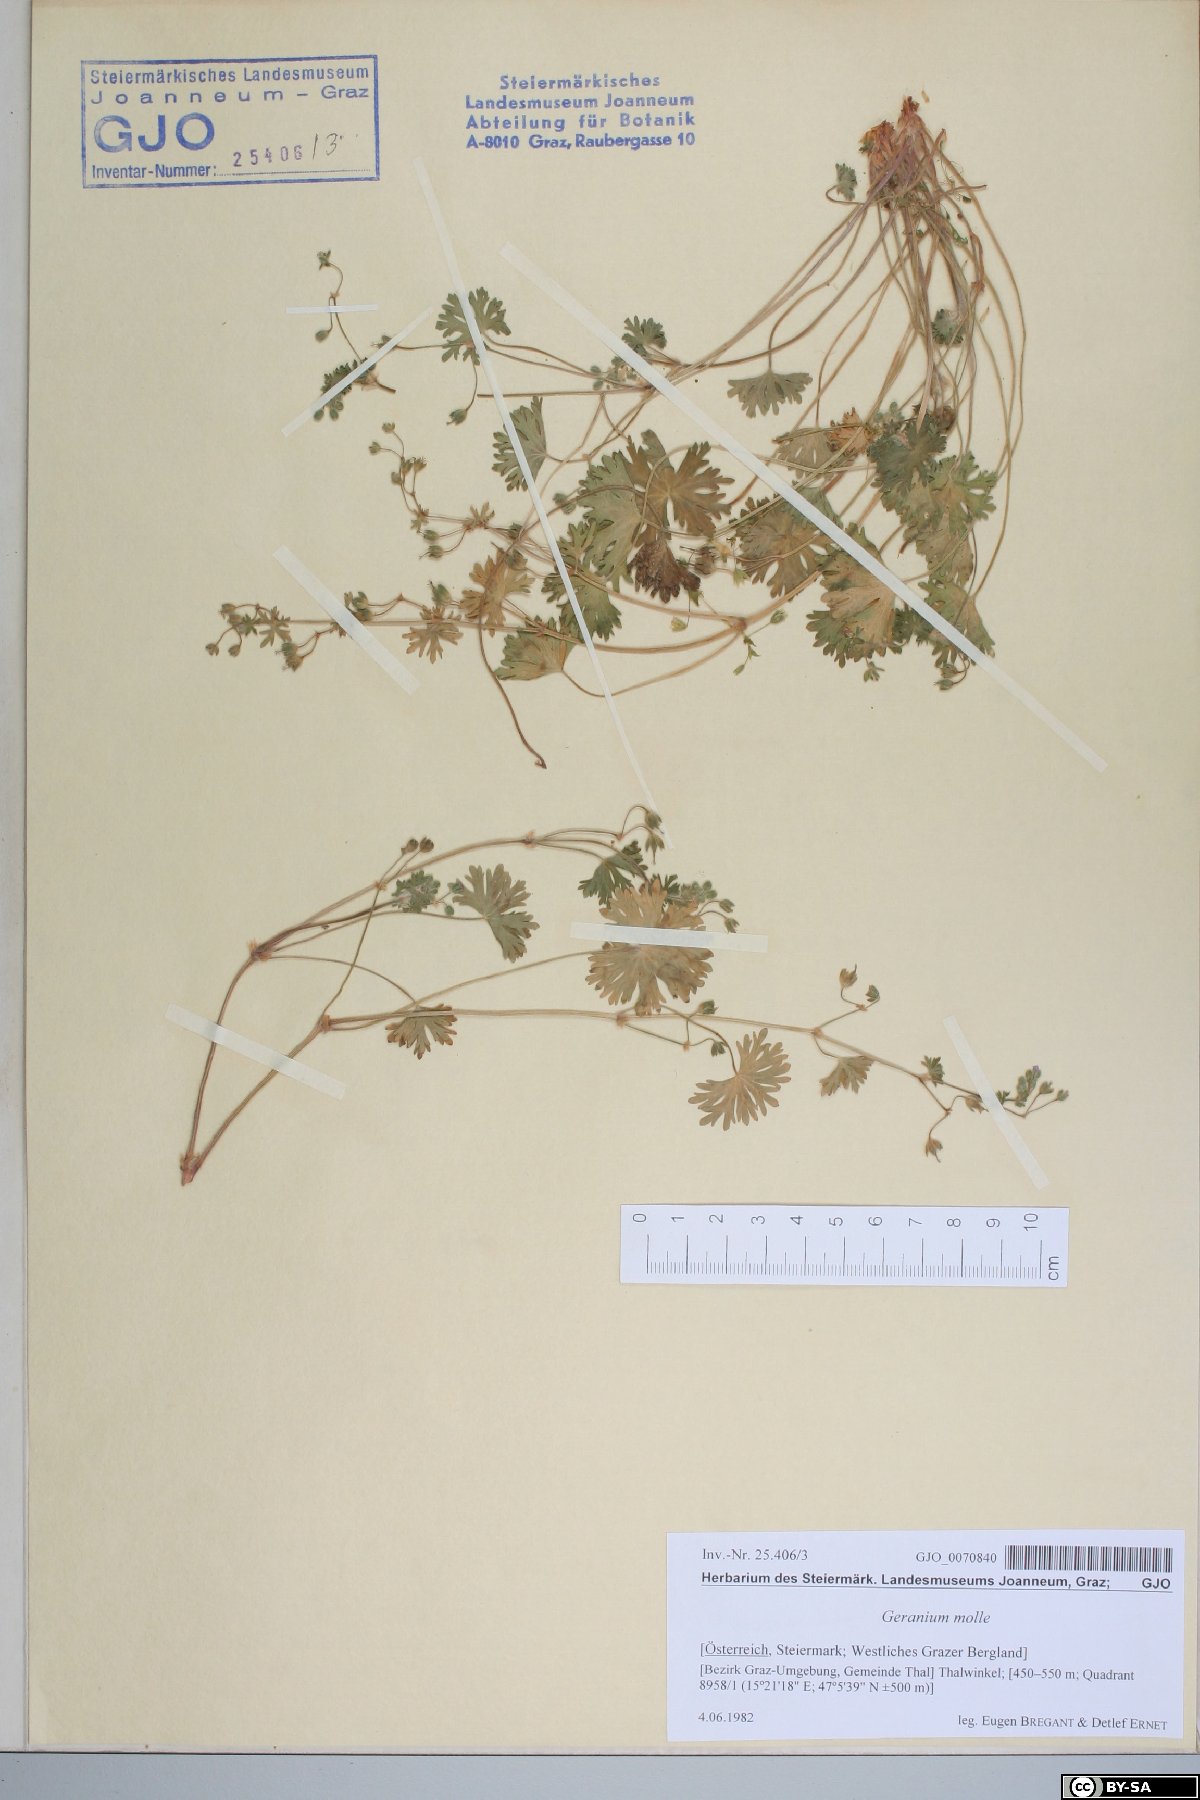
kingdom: Plantae
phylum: Tracheophyta
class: Magnoliopsida
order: Geraniales
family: Geraniaceae
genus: Geranium
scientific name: Geranium molle
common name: Dove's-foot crane's-bill
